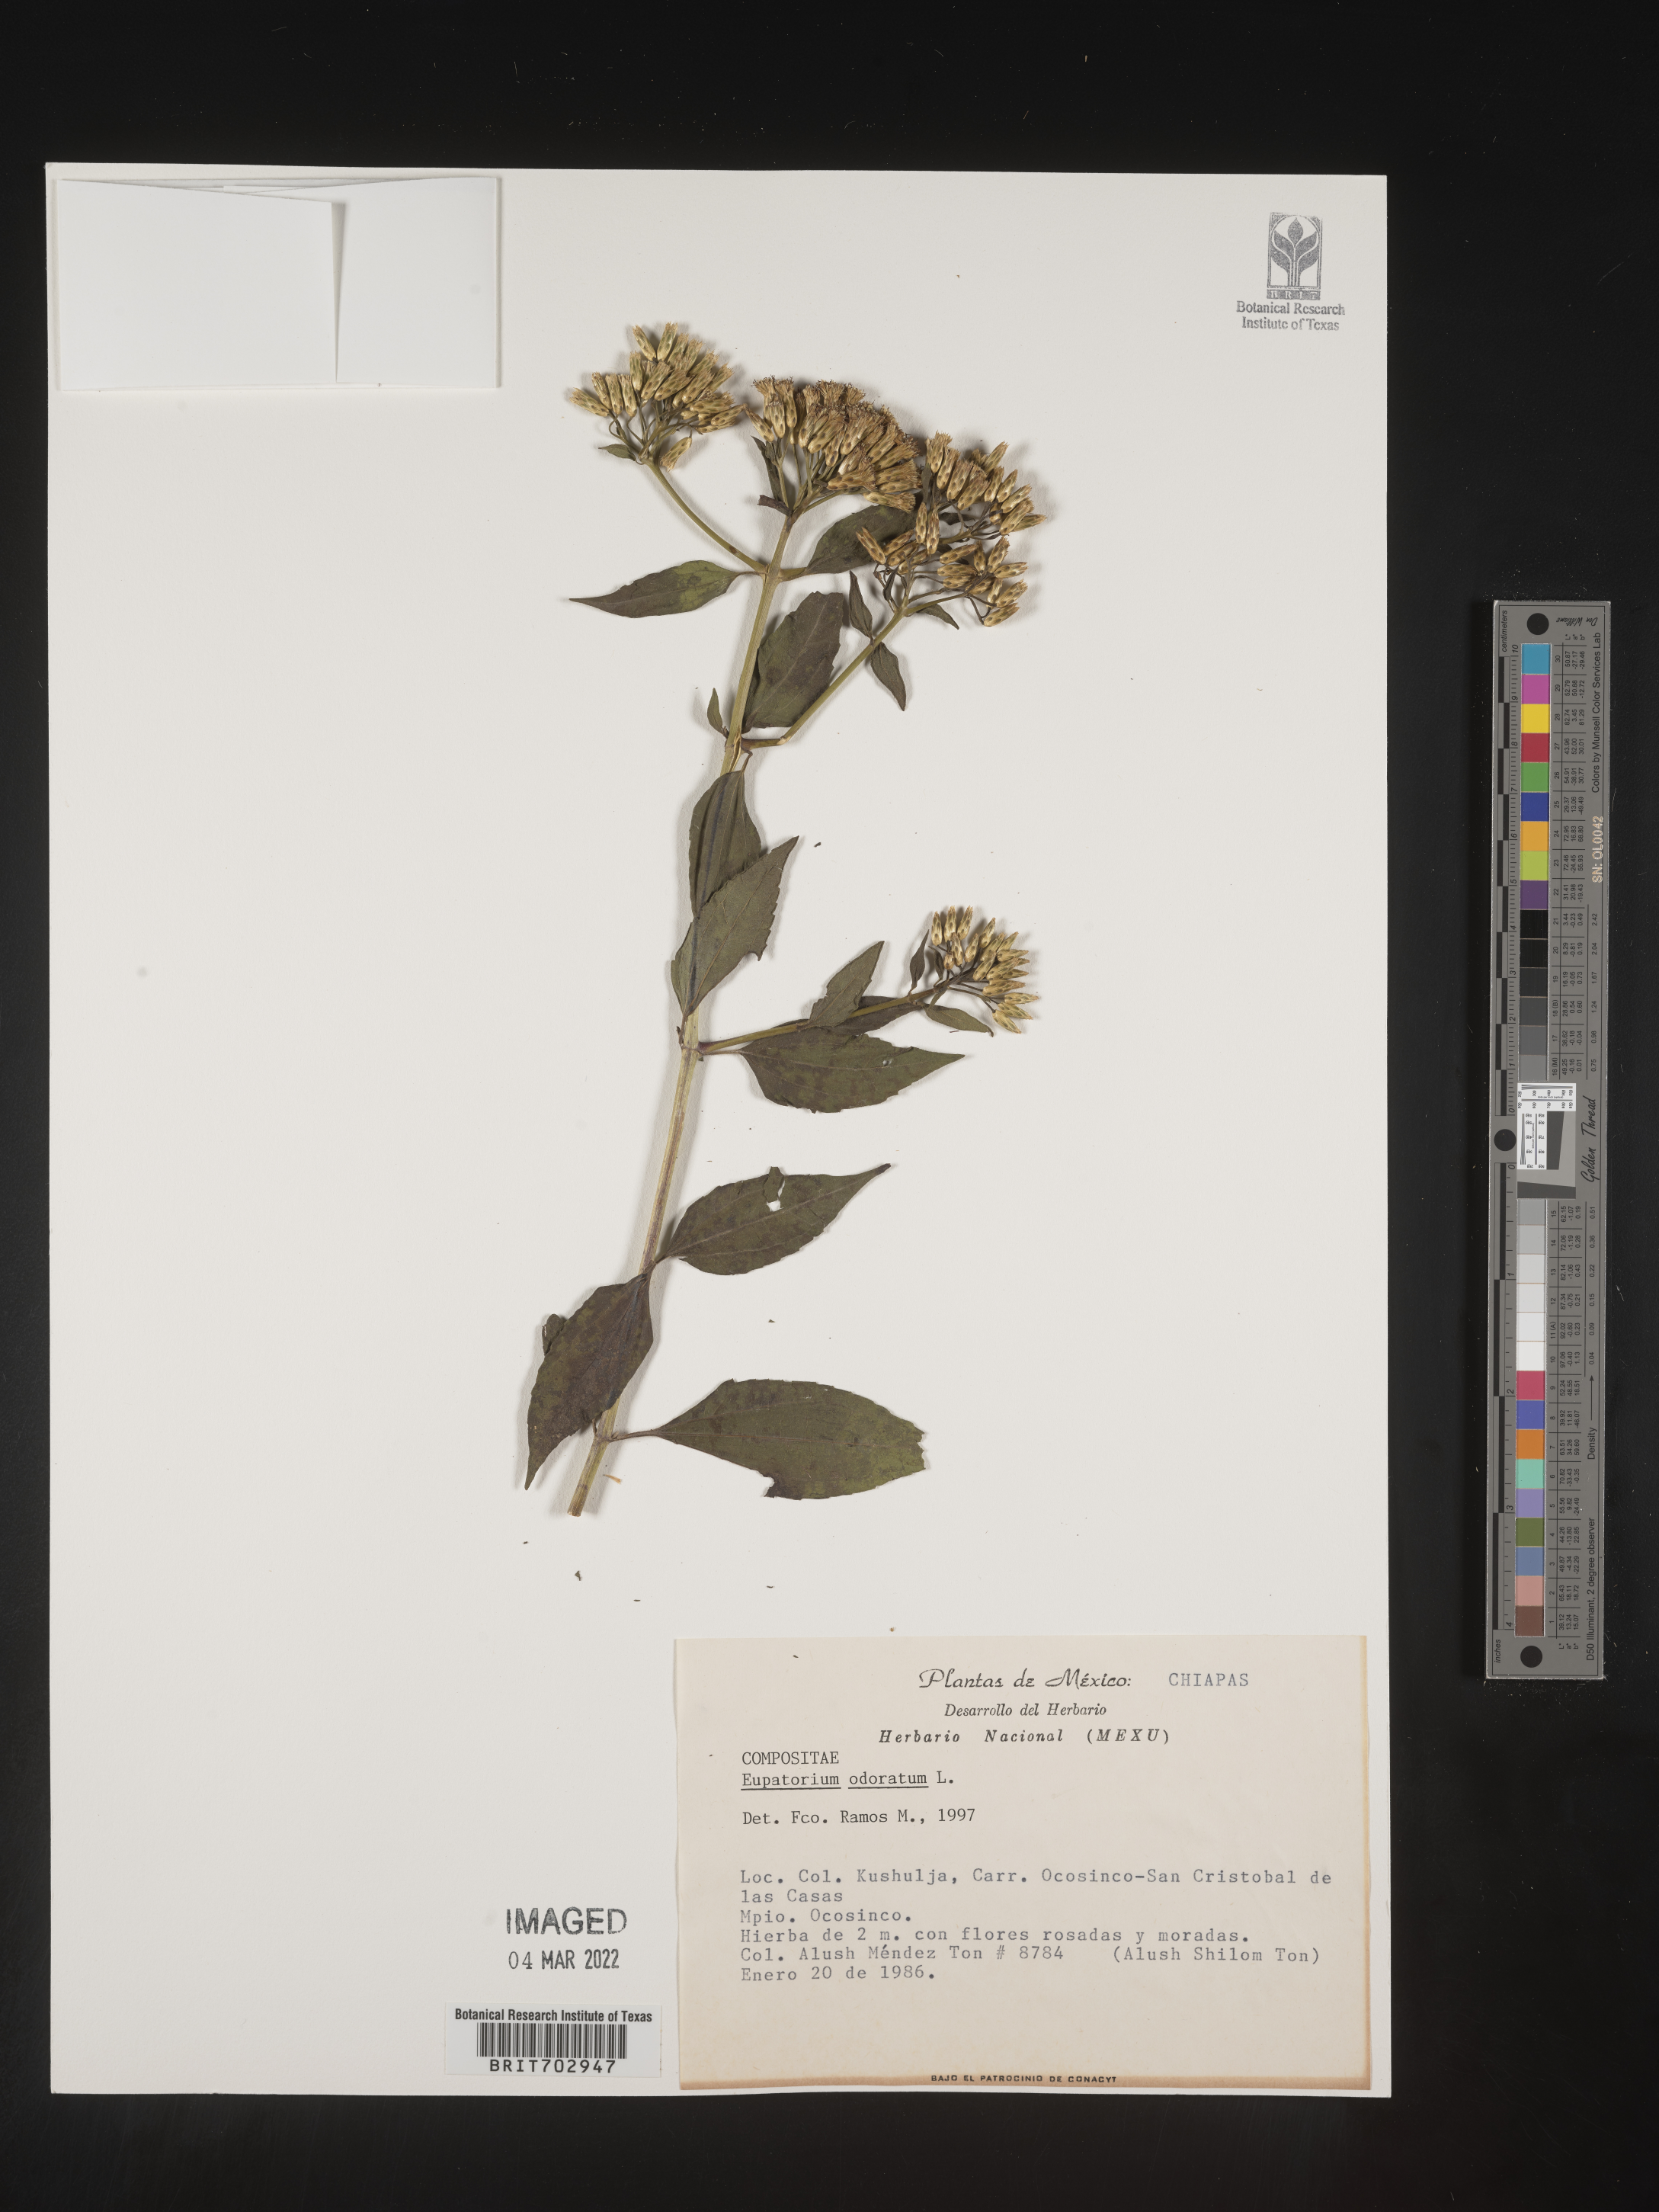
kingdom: Plantae
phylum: Tracheophyta
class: Magnoliopsida
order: Asterales
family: Asteraceae
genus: Eupatorium
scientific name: Eupatorium
